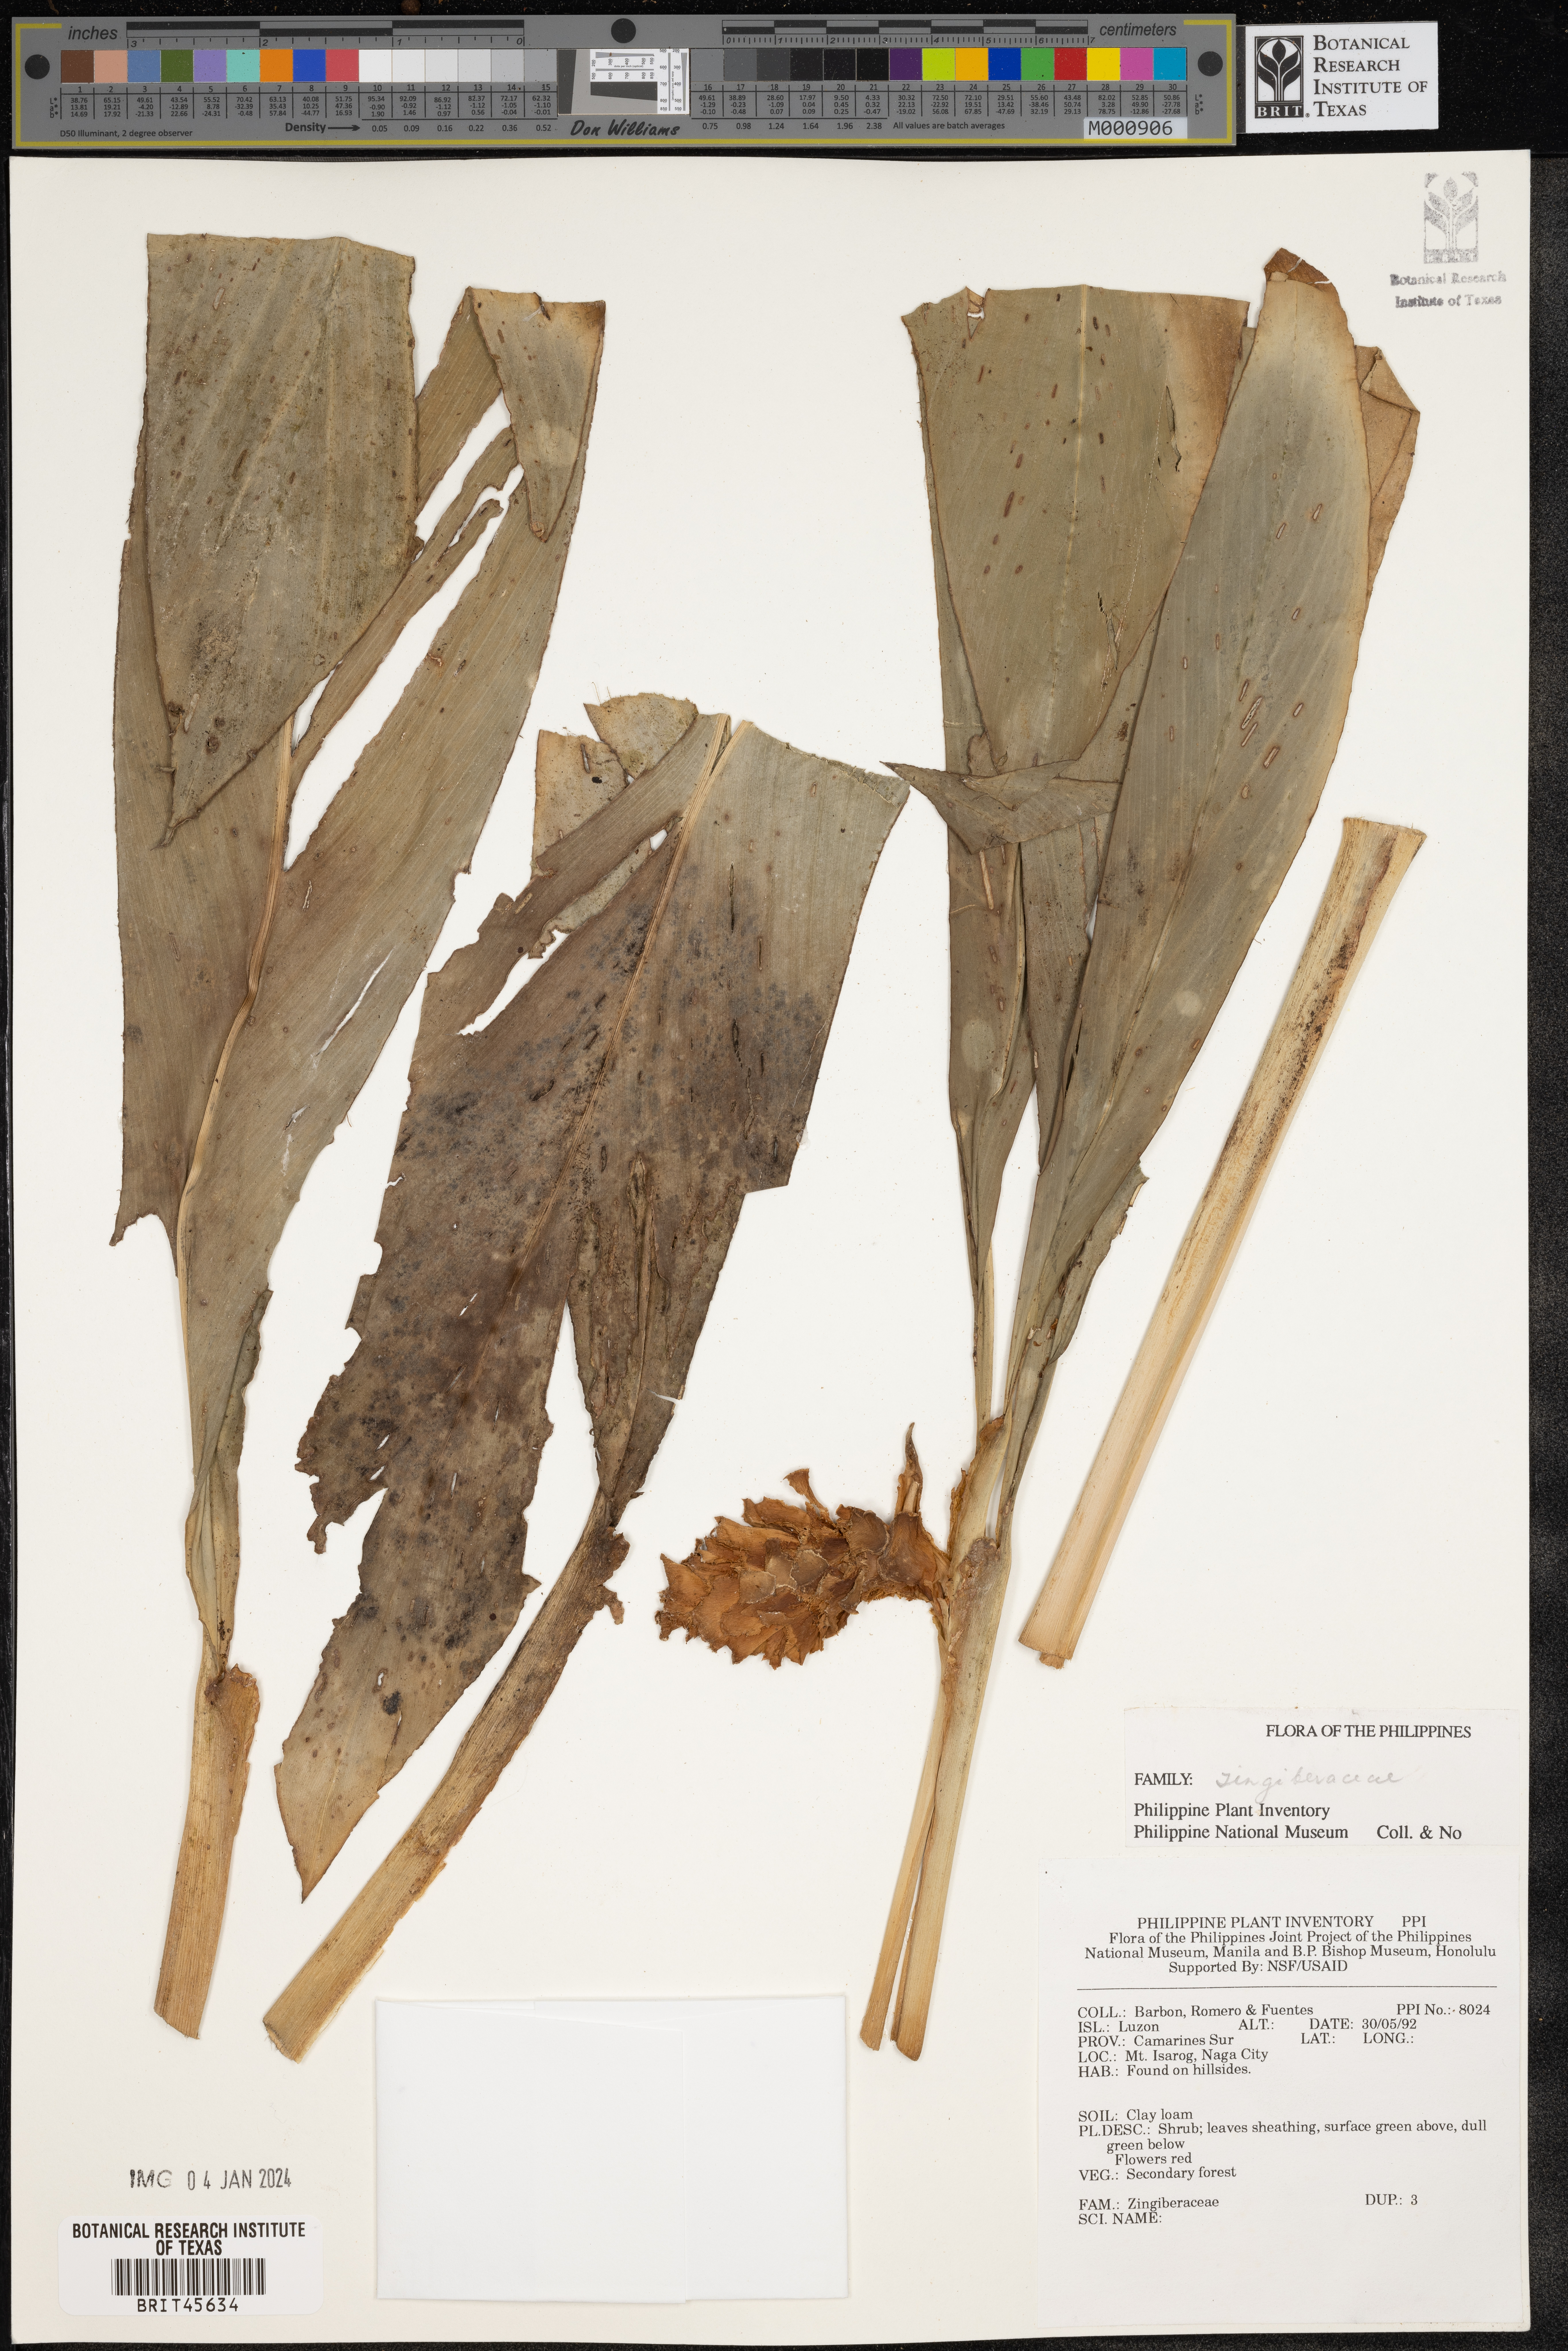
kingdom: Plantae
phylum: Tracheophyta
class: Liliopsida
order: Zingiberales
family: Zingiberaceae
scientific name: Zingiberaceae
